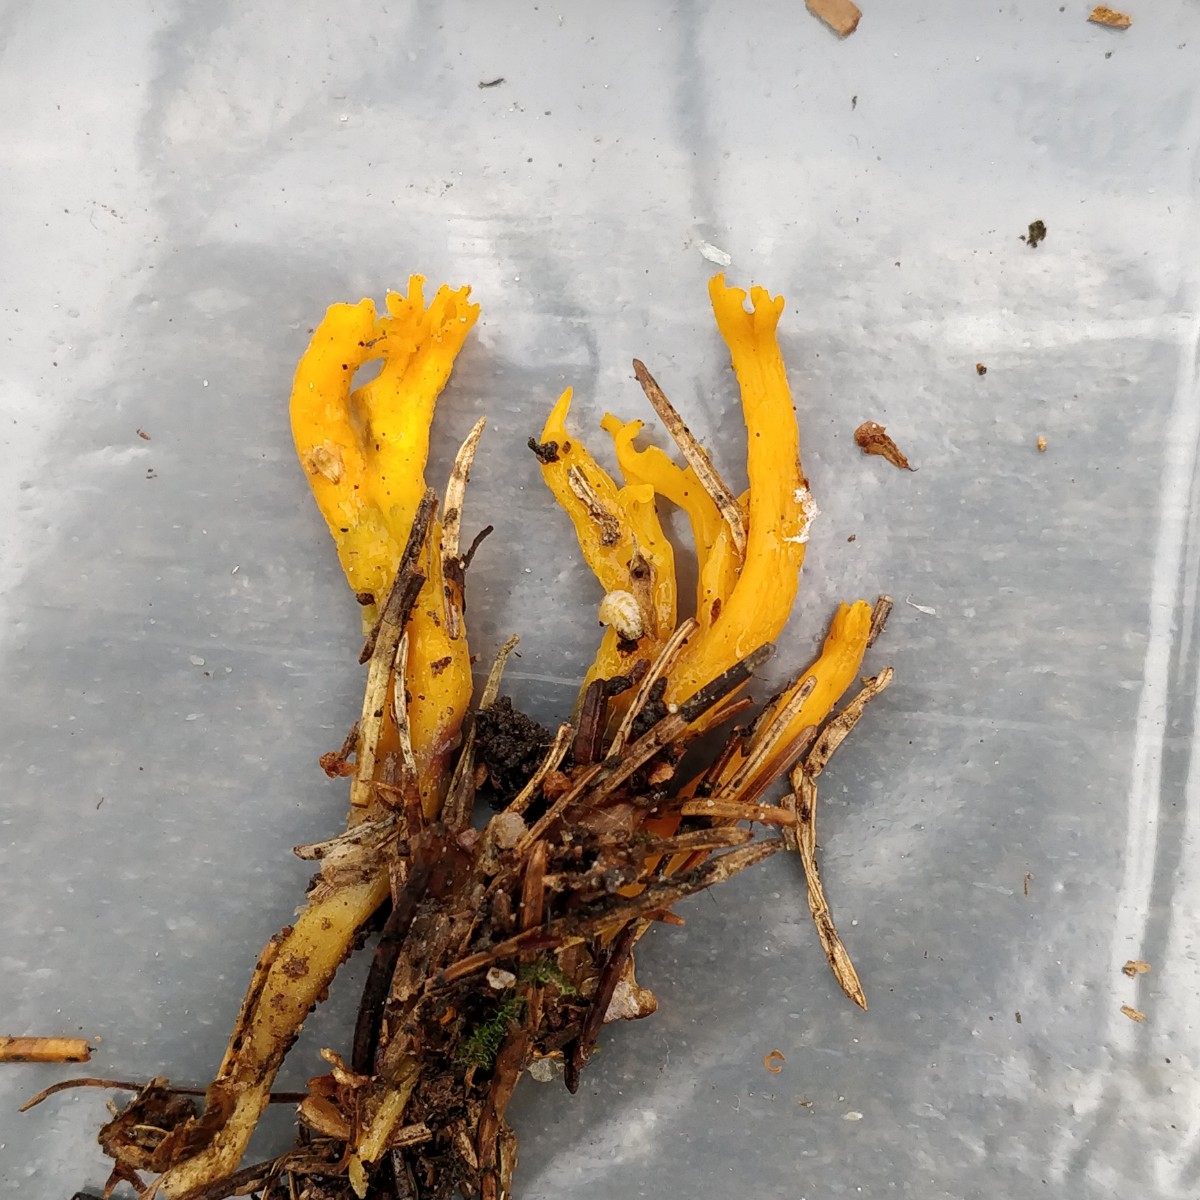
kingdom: Fungi
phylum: Basidiomycota
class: Dacrymycetes
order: Dacrymycetales
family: Dacrymycetaceae
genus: Calocera
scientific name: Calocera viscosa
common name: almindelig guldgaffel
